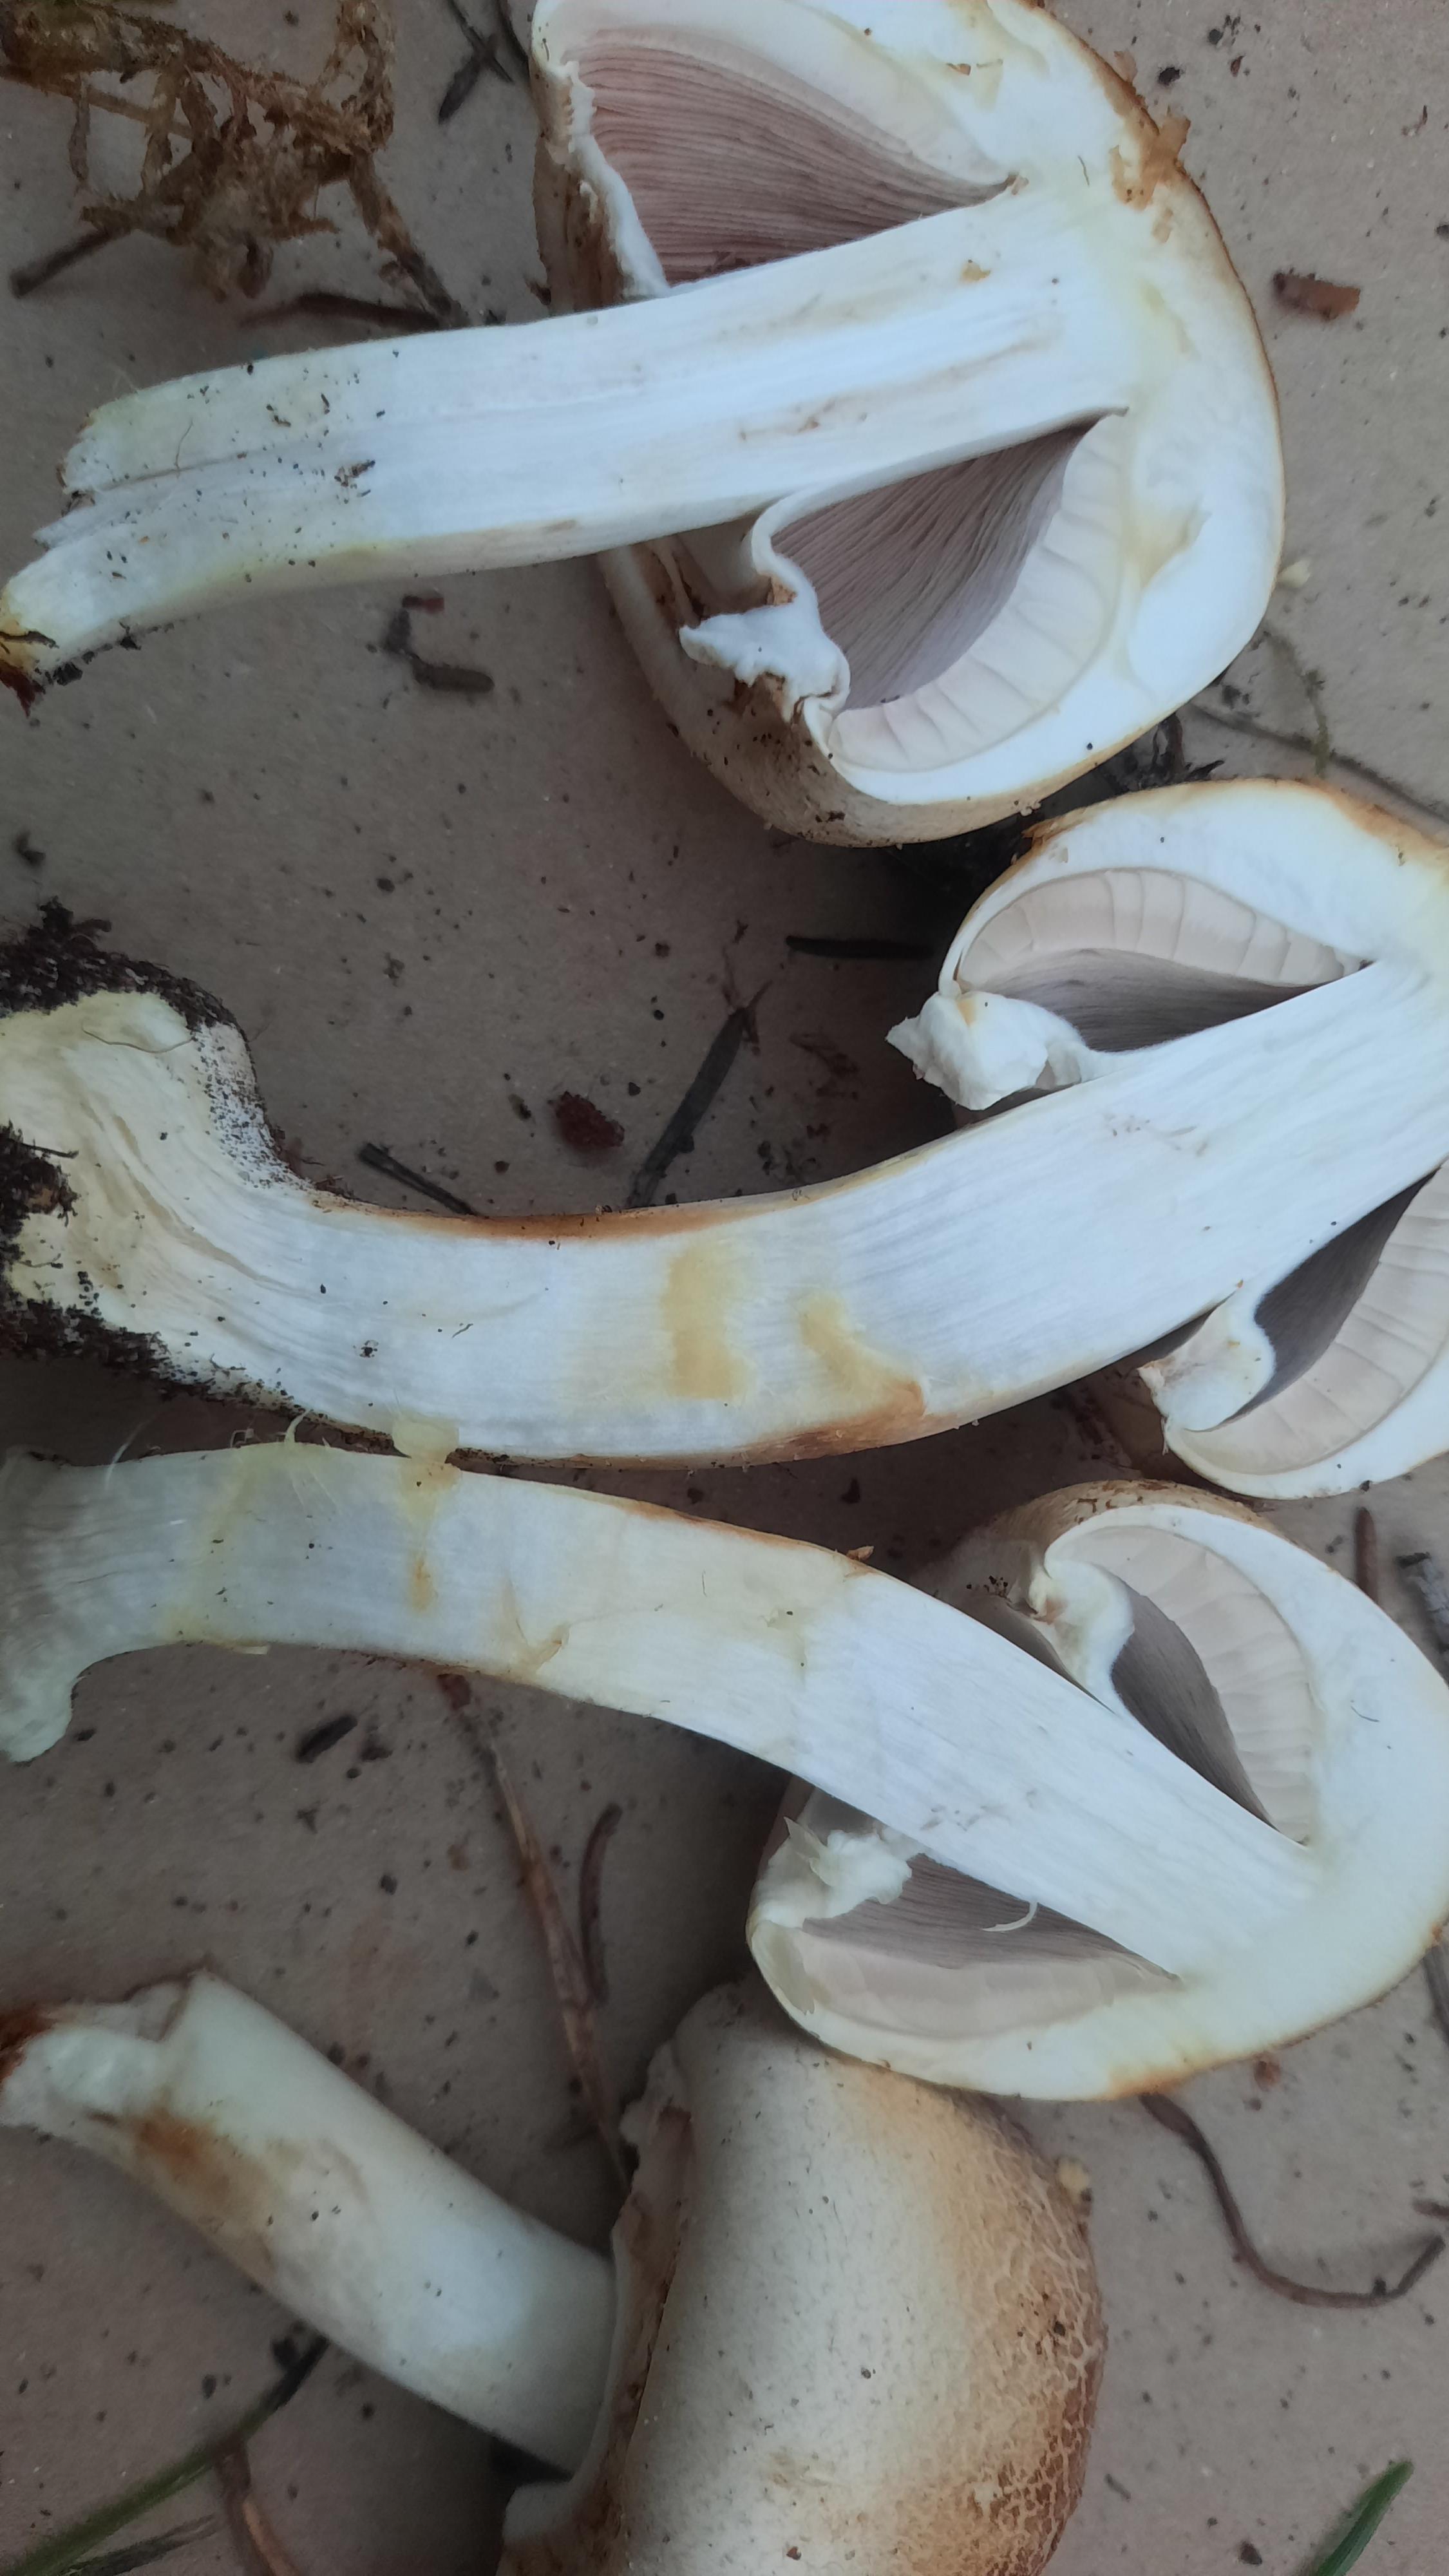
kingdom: Fungi
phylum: Basidiomycota
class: Agaricomycetes
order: Agaricales
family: Agaricaceae
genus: Agaricus
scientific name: Agaricus xanthodermus
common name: karbol-champignon
